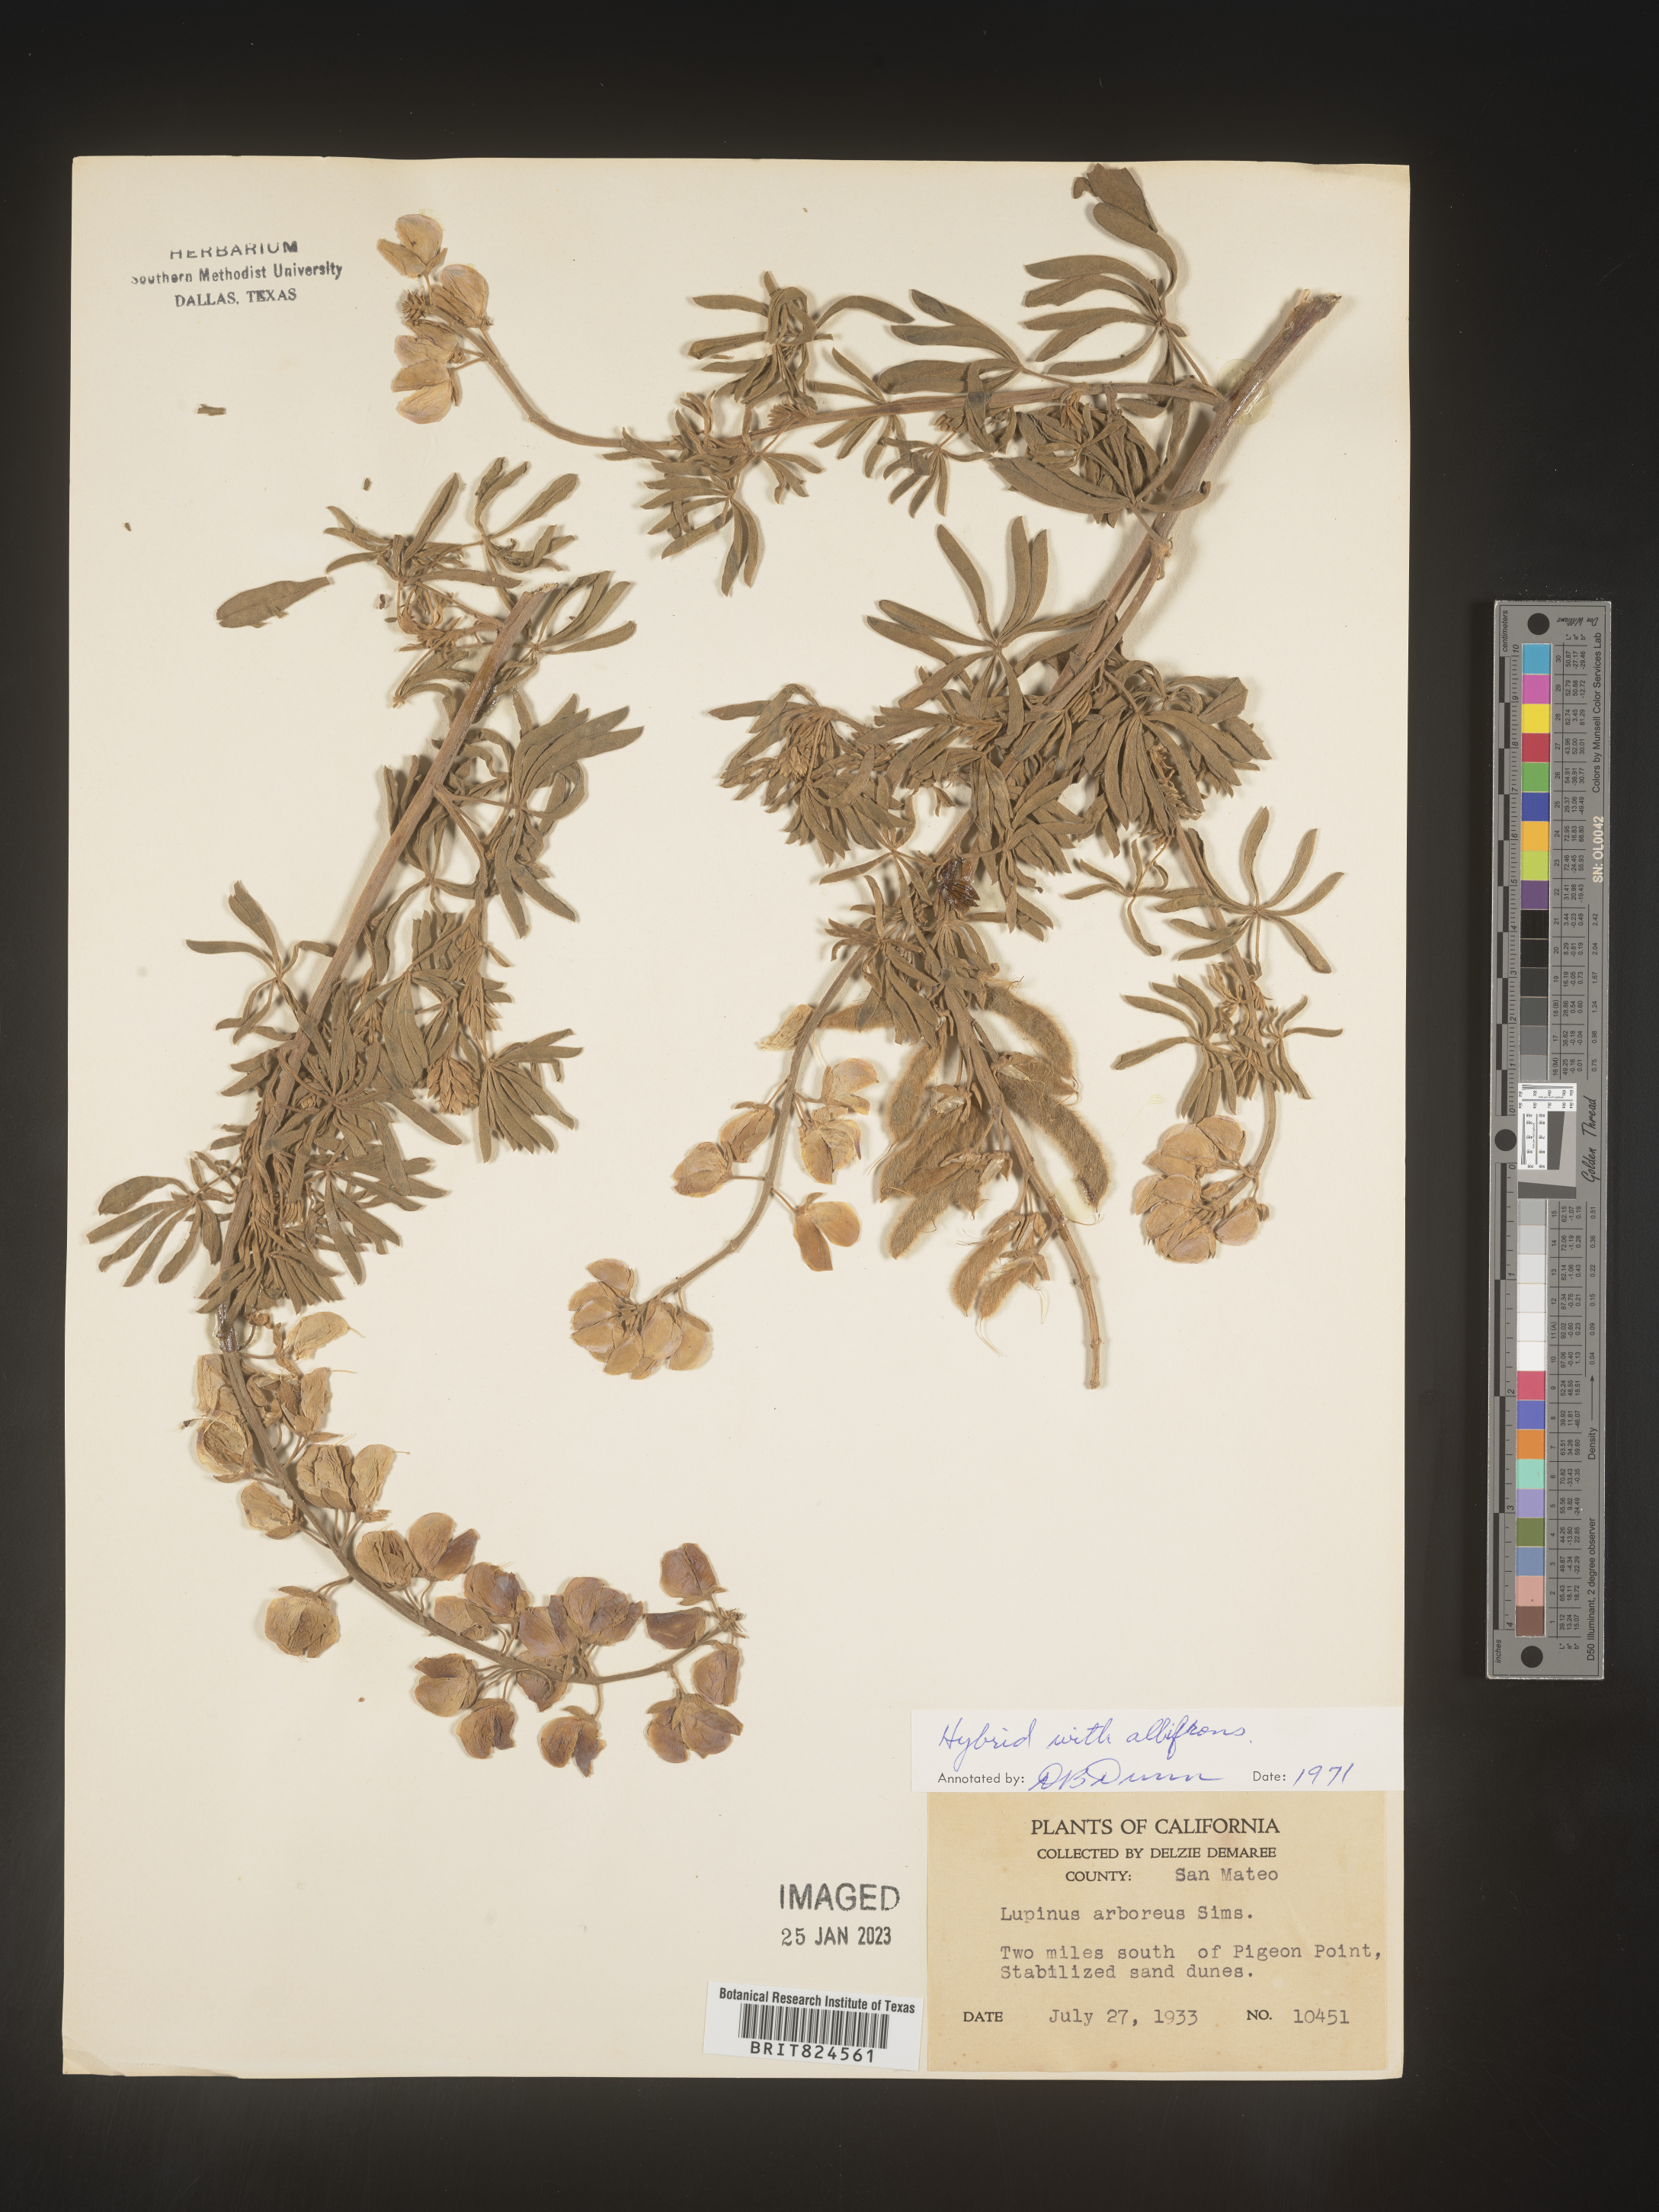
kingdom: Plantae
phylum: Tracheophyta
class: Magnoliopsida
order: Fabales
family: Fabaceae
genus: Lupinus
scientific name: Lupinus arboreus
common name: Yellow bush lupine
